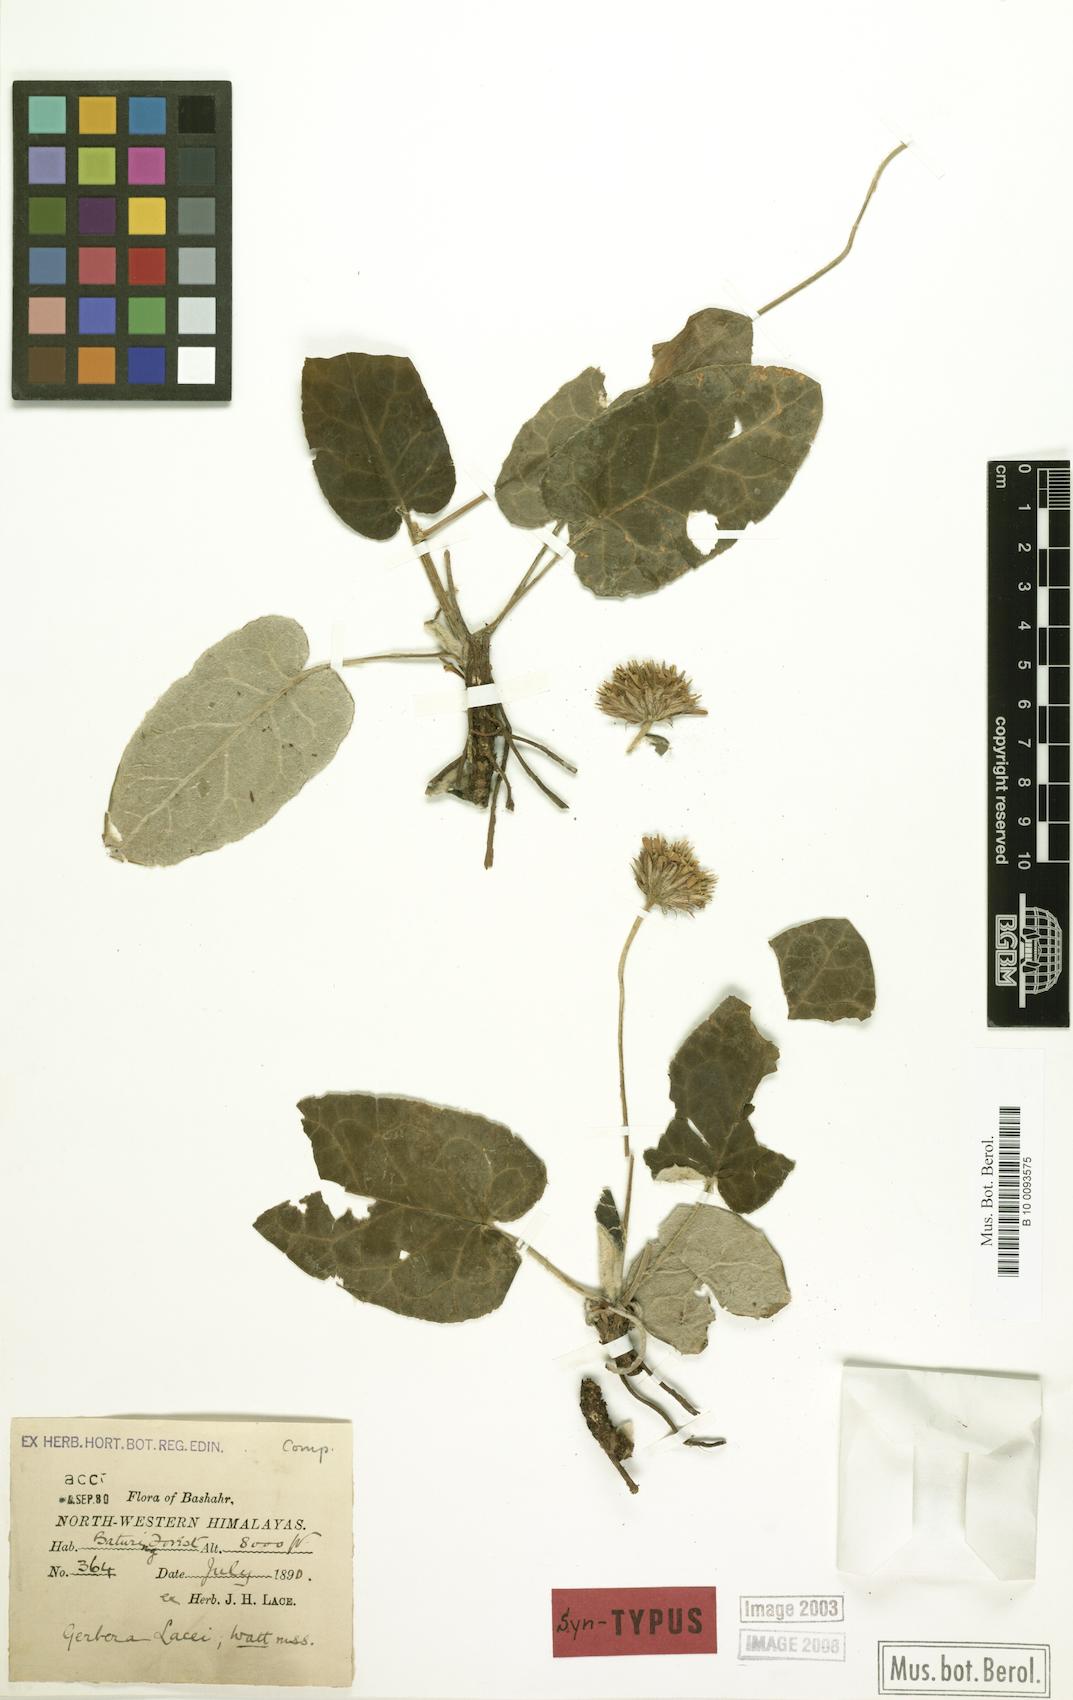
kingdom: Plantae
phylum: Tracheophyta
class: Magnoliopsida
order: Asterales
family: Asteraceae
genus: Oreoseris
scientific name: Oreoseris lacei
